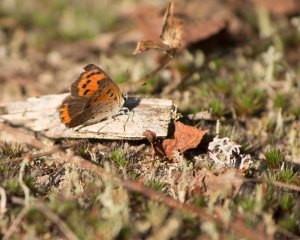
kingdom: Animalia
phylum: Arthropoda
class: Insecta
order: Lepidoptera
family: Lycaenidae
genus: Lycaena
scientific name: Lycaena phlaeas
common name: American Copper
